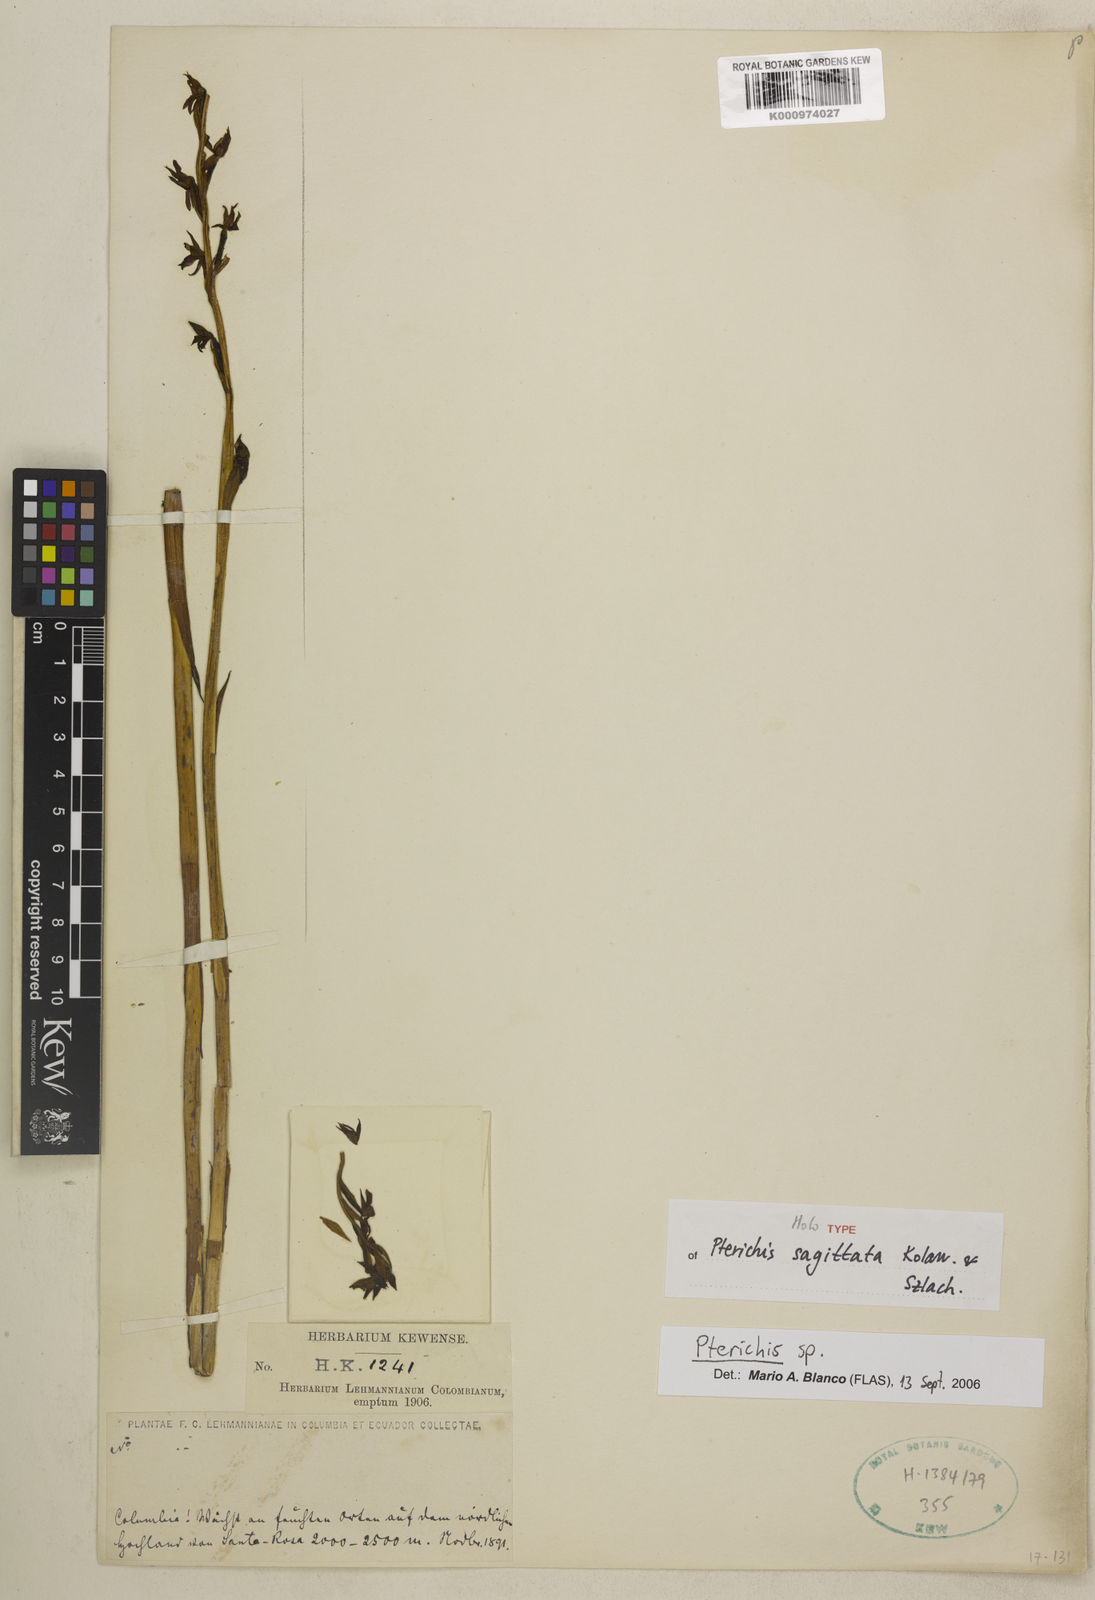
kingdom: Plantae
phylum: Tracheophyta
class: Liliopsida
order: Asparagales
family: Orchidaceae
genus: Pterichis
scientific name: Pterichis sagittata
